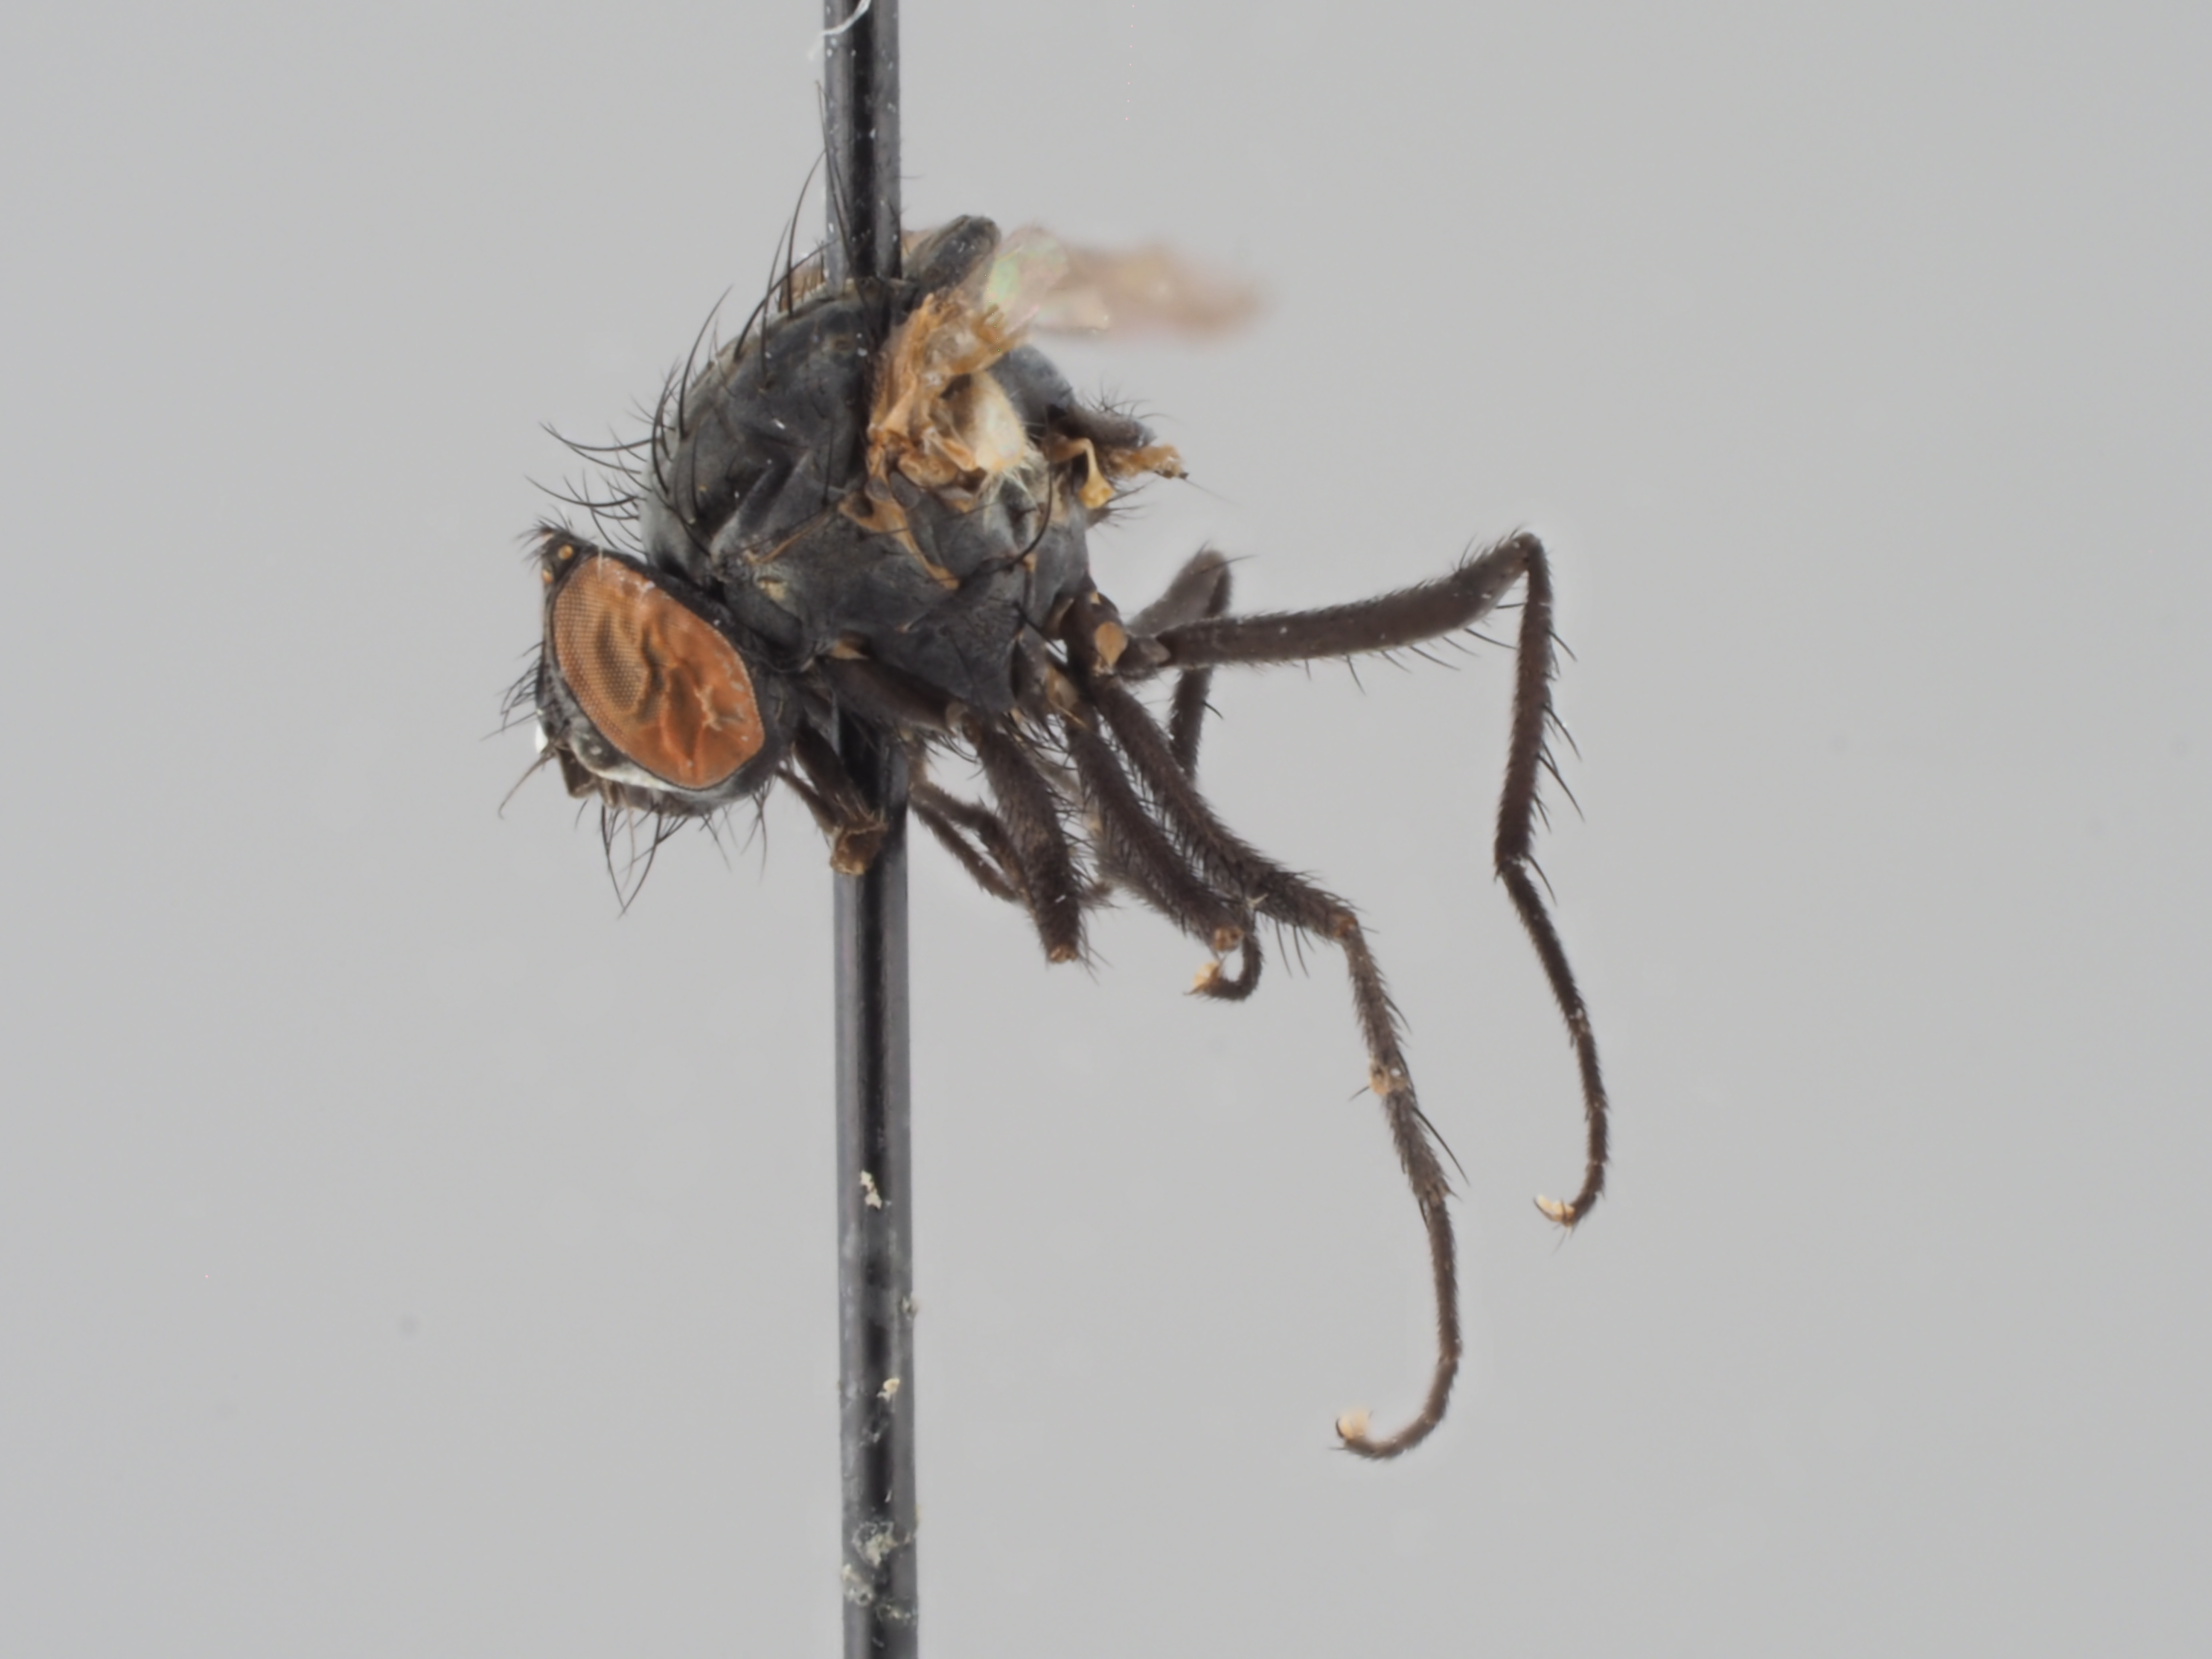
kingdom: Animalia
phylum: Arthropoda
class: Insecta
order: Diptera
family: Anthomyiidae
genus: Delia
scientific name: Delia echinata
